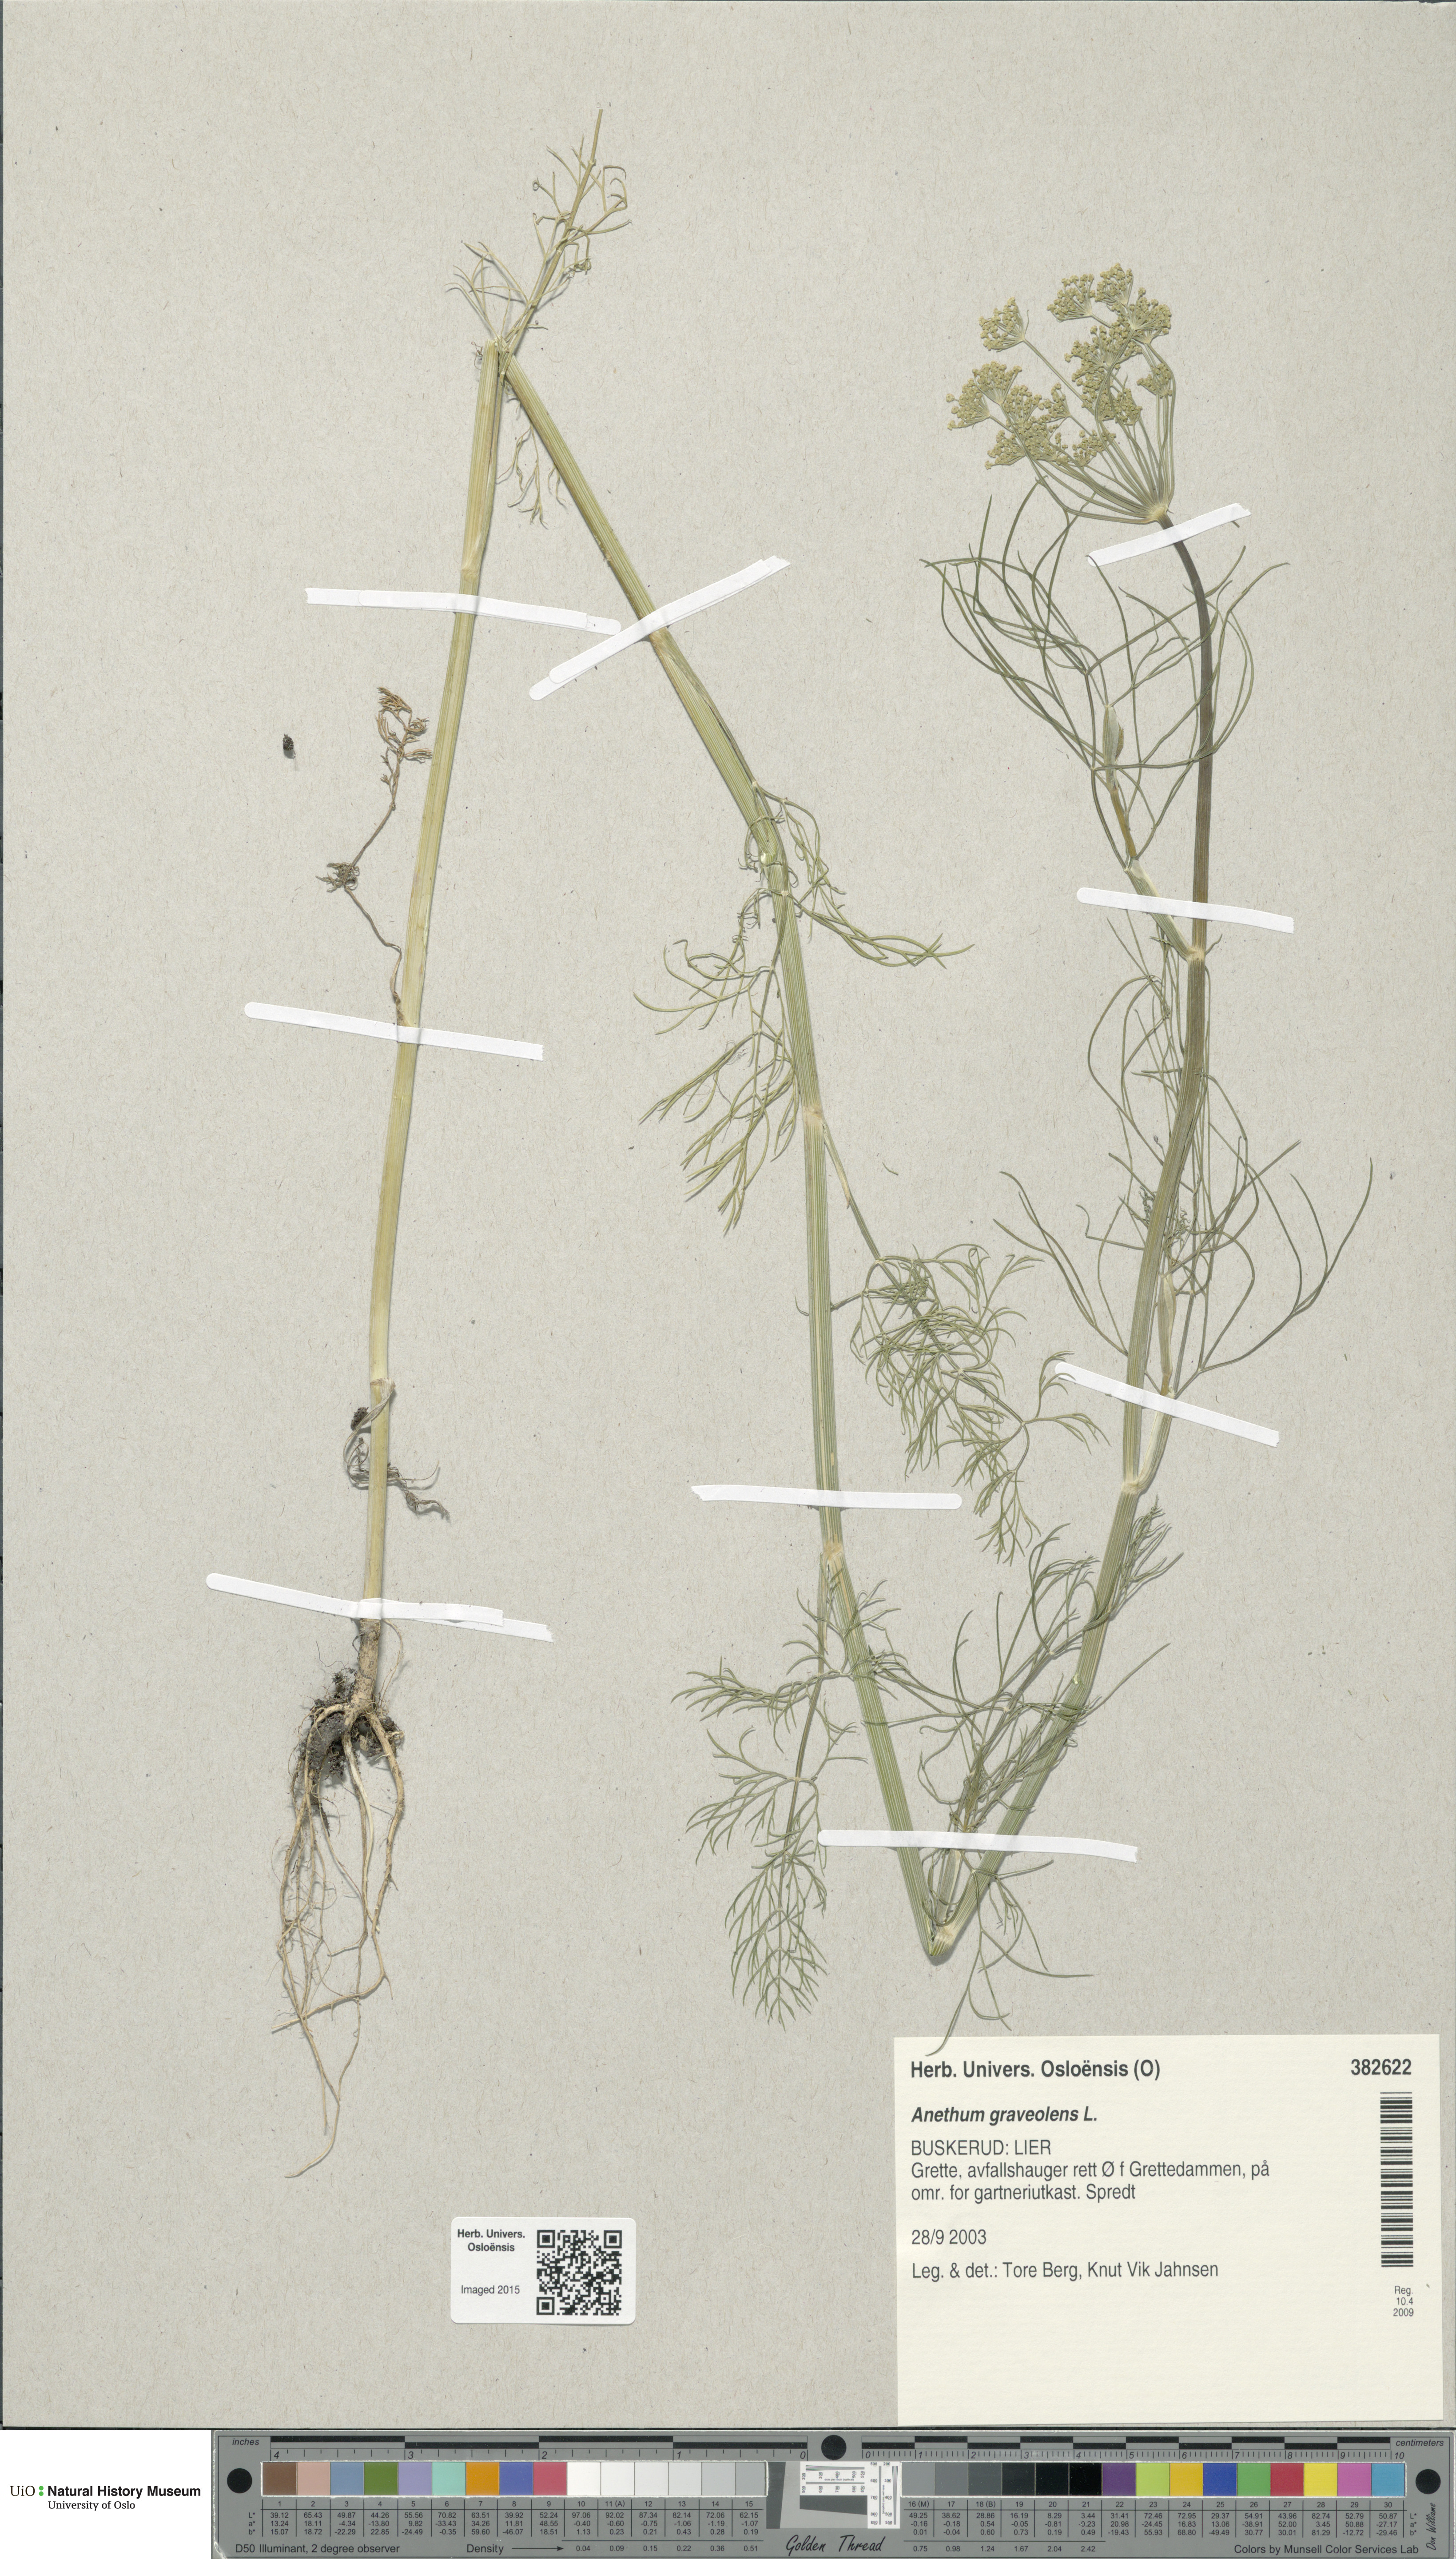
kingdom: Plantae
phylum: Tracheophyta
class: Magnoliopsida
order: Apiales
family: Apiaceae
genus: Anethum
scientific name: Anethum graveolens
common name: Dill
